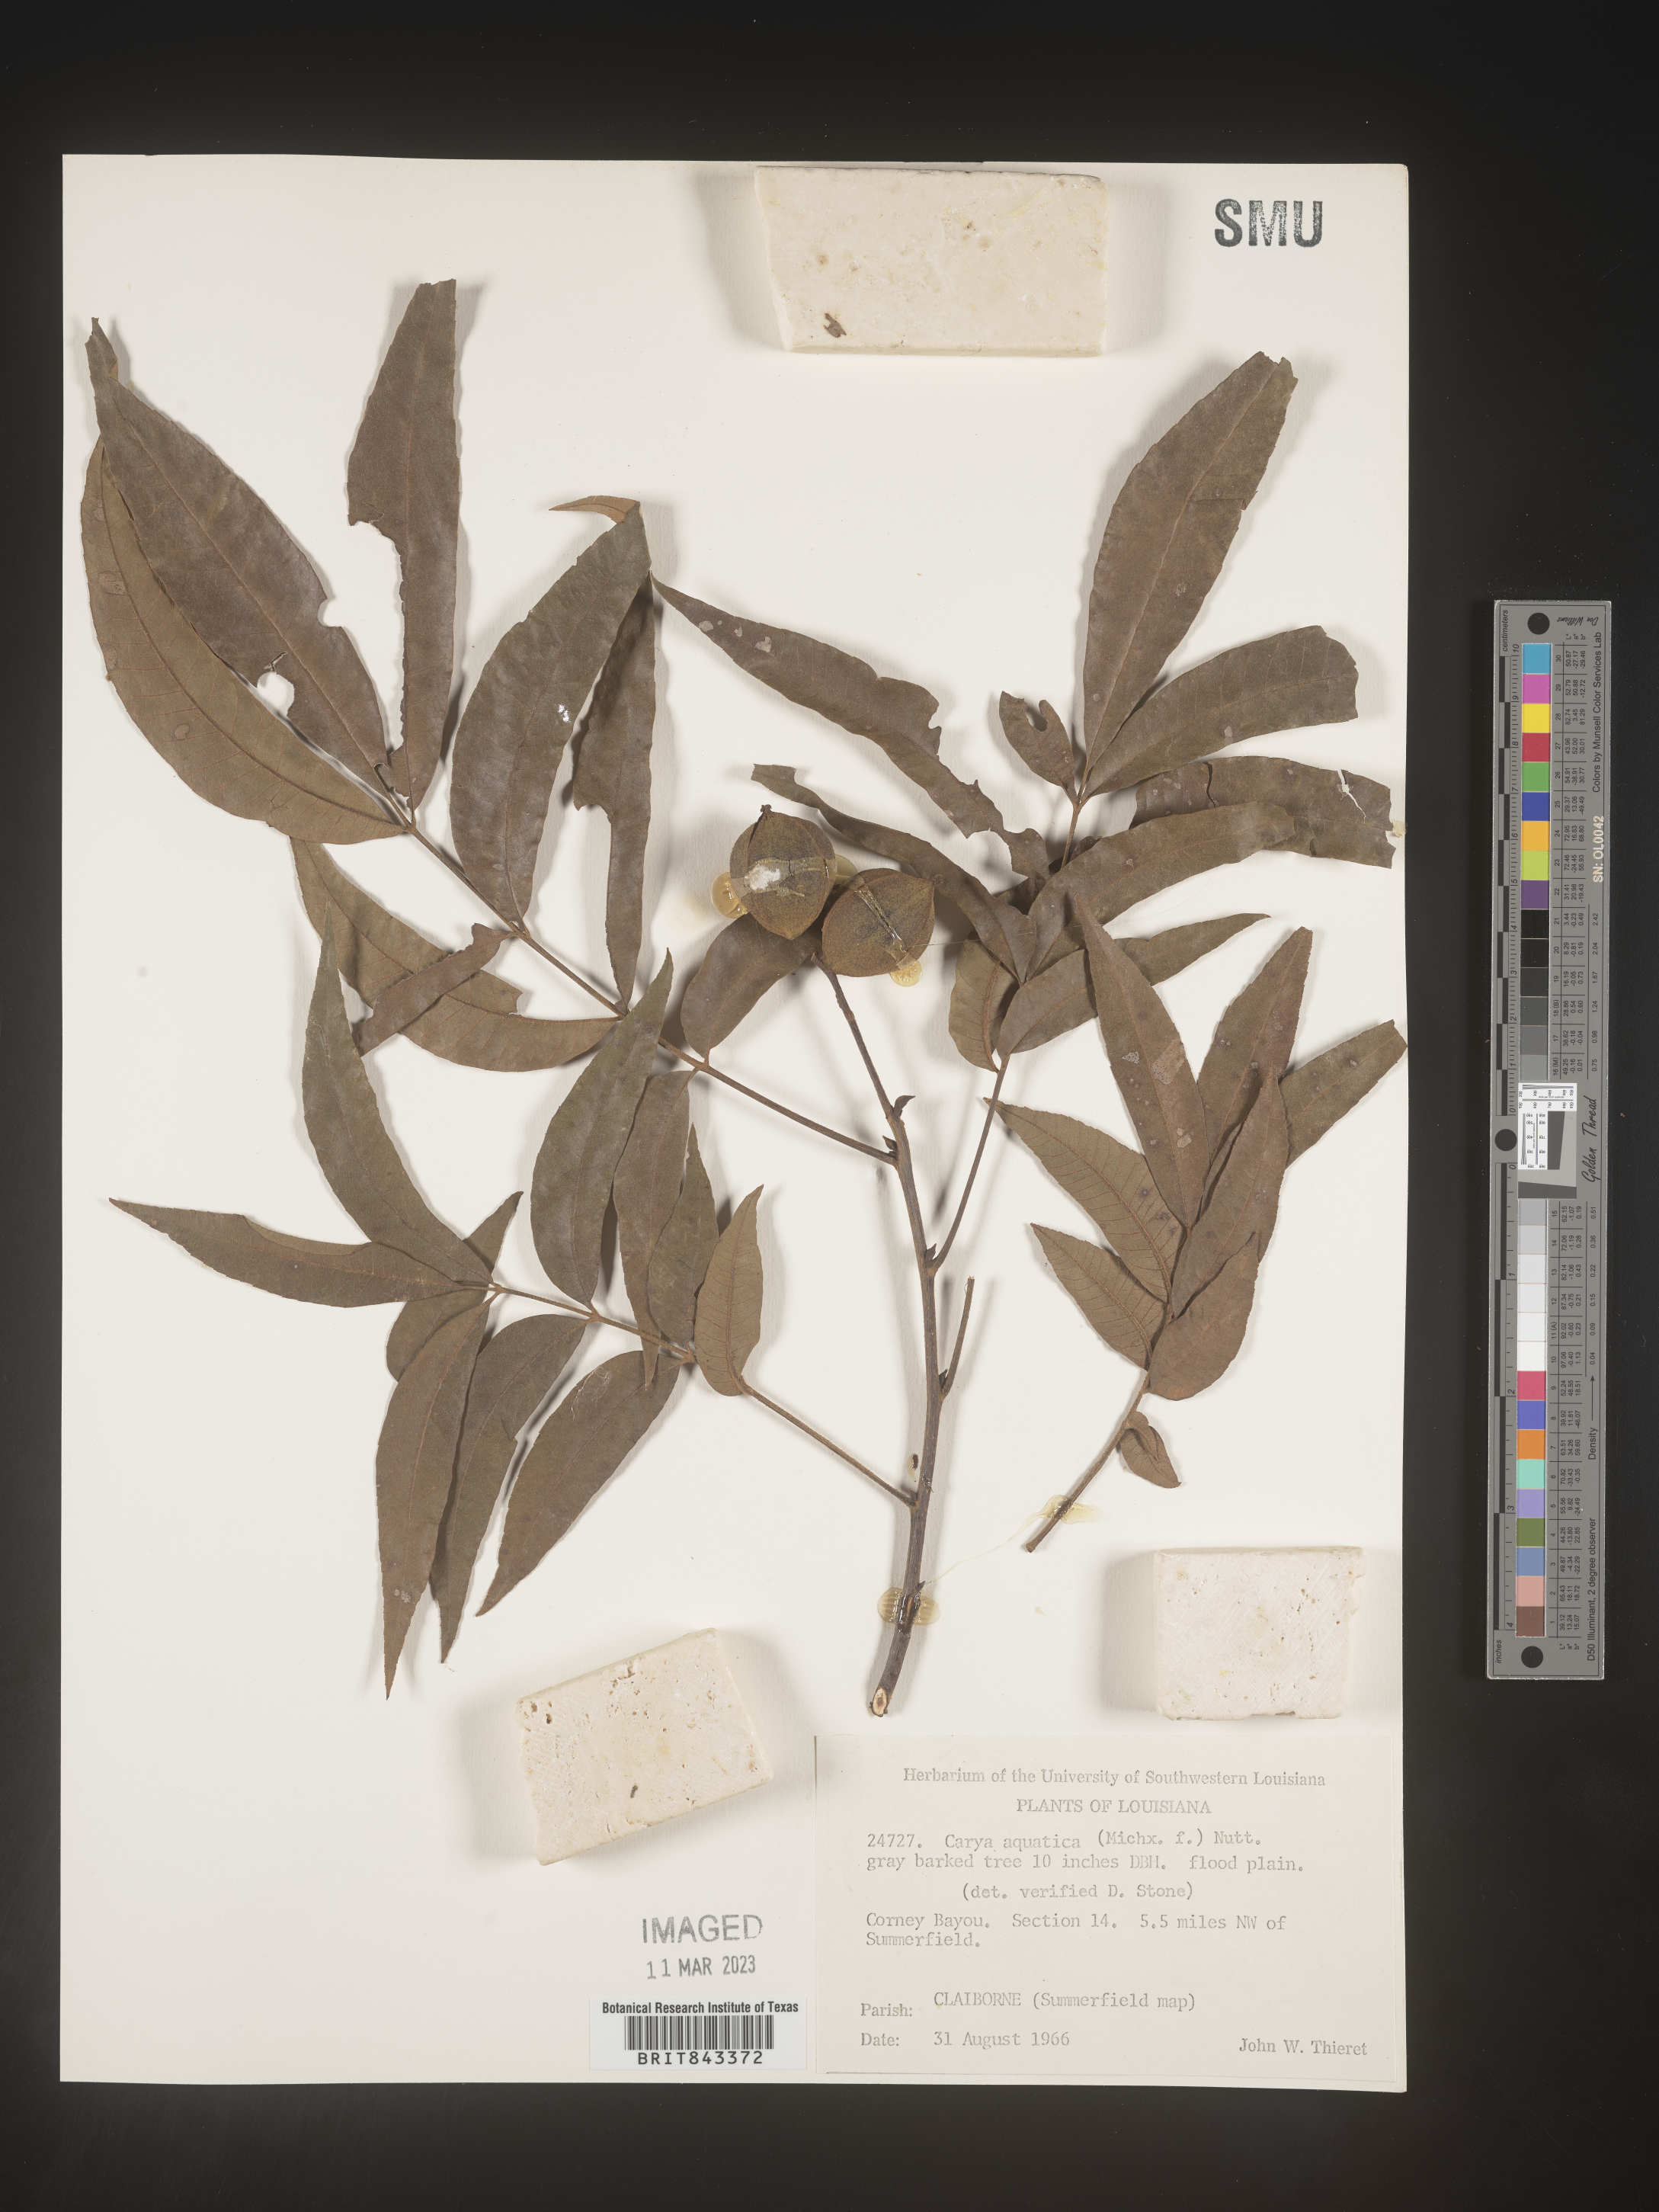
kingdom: Plantae
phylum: Tracheophyta
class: Magnoliopsida
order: Fagales
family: Juglandaceae
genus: Carya
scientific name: Carya aquatica
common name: Water hickory
